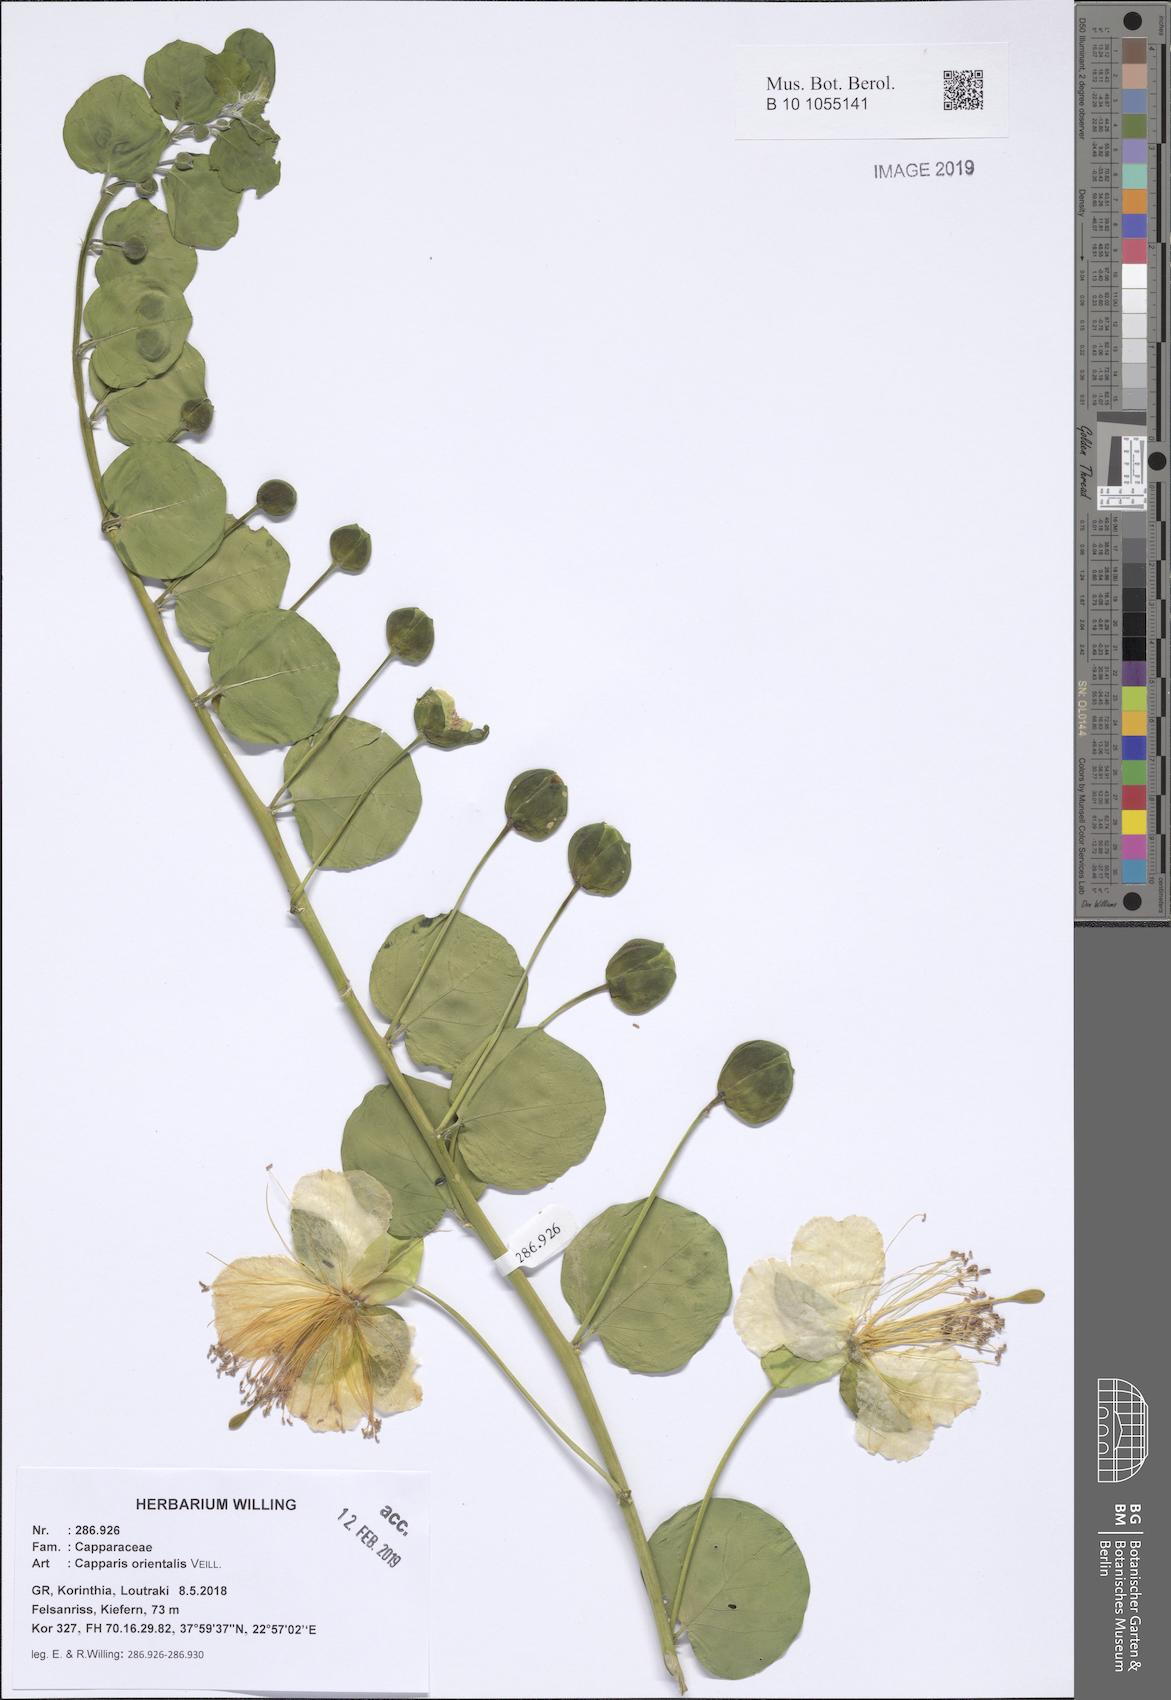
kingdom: Plantae
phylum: Tracheophyta
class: Magnoliopsida
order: Brassicales
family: Capparaceae
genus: Capparis
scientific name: Capparis spinosa
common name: Caper
